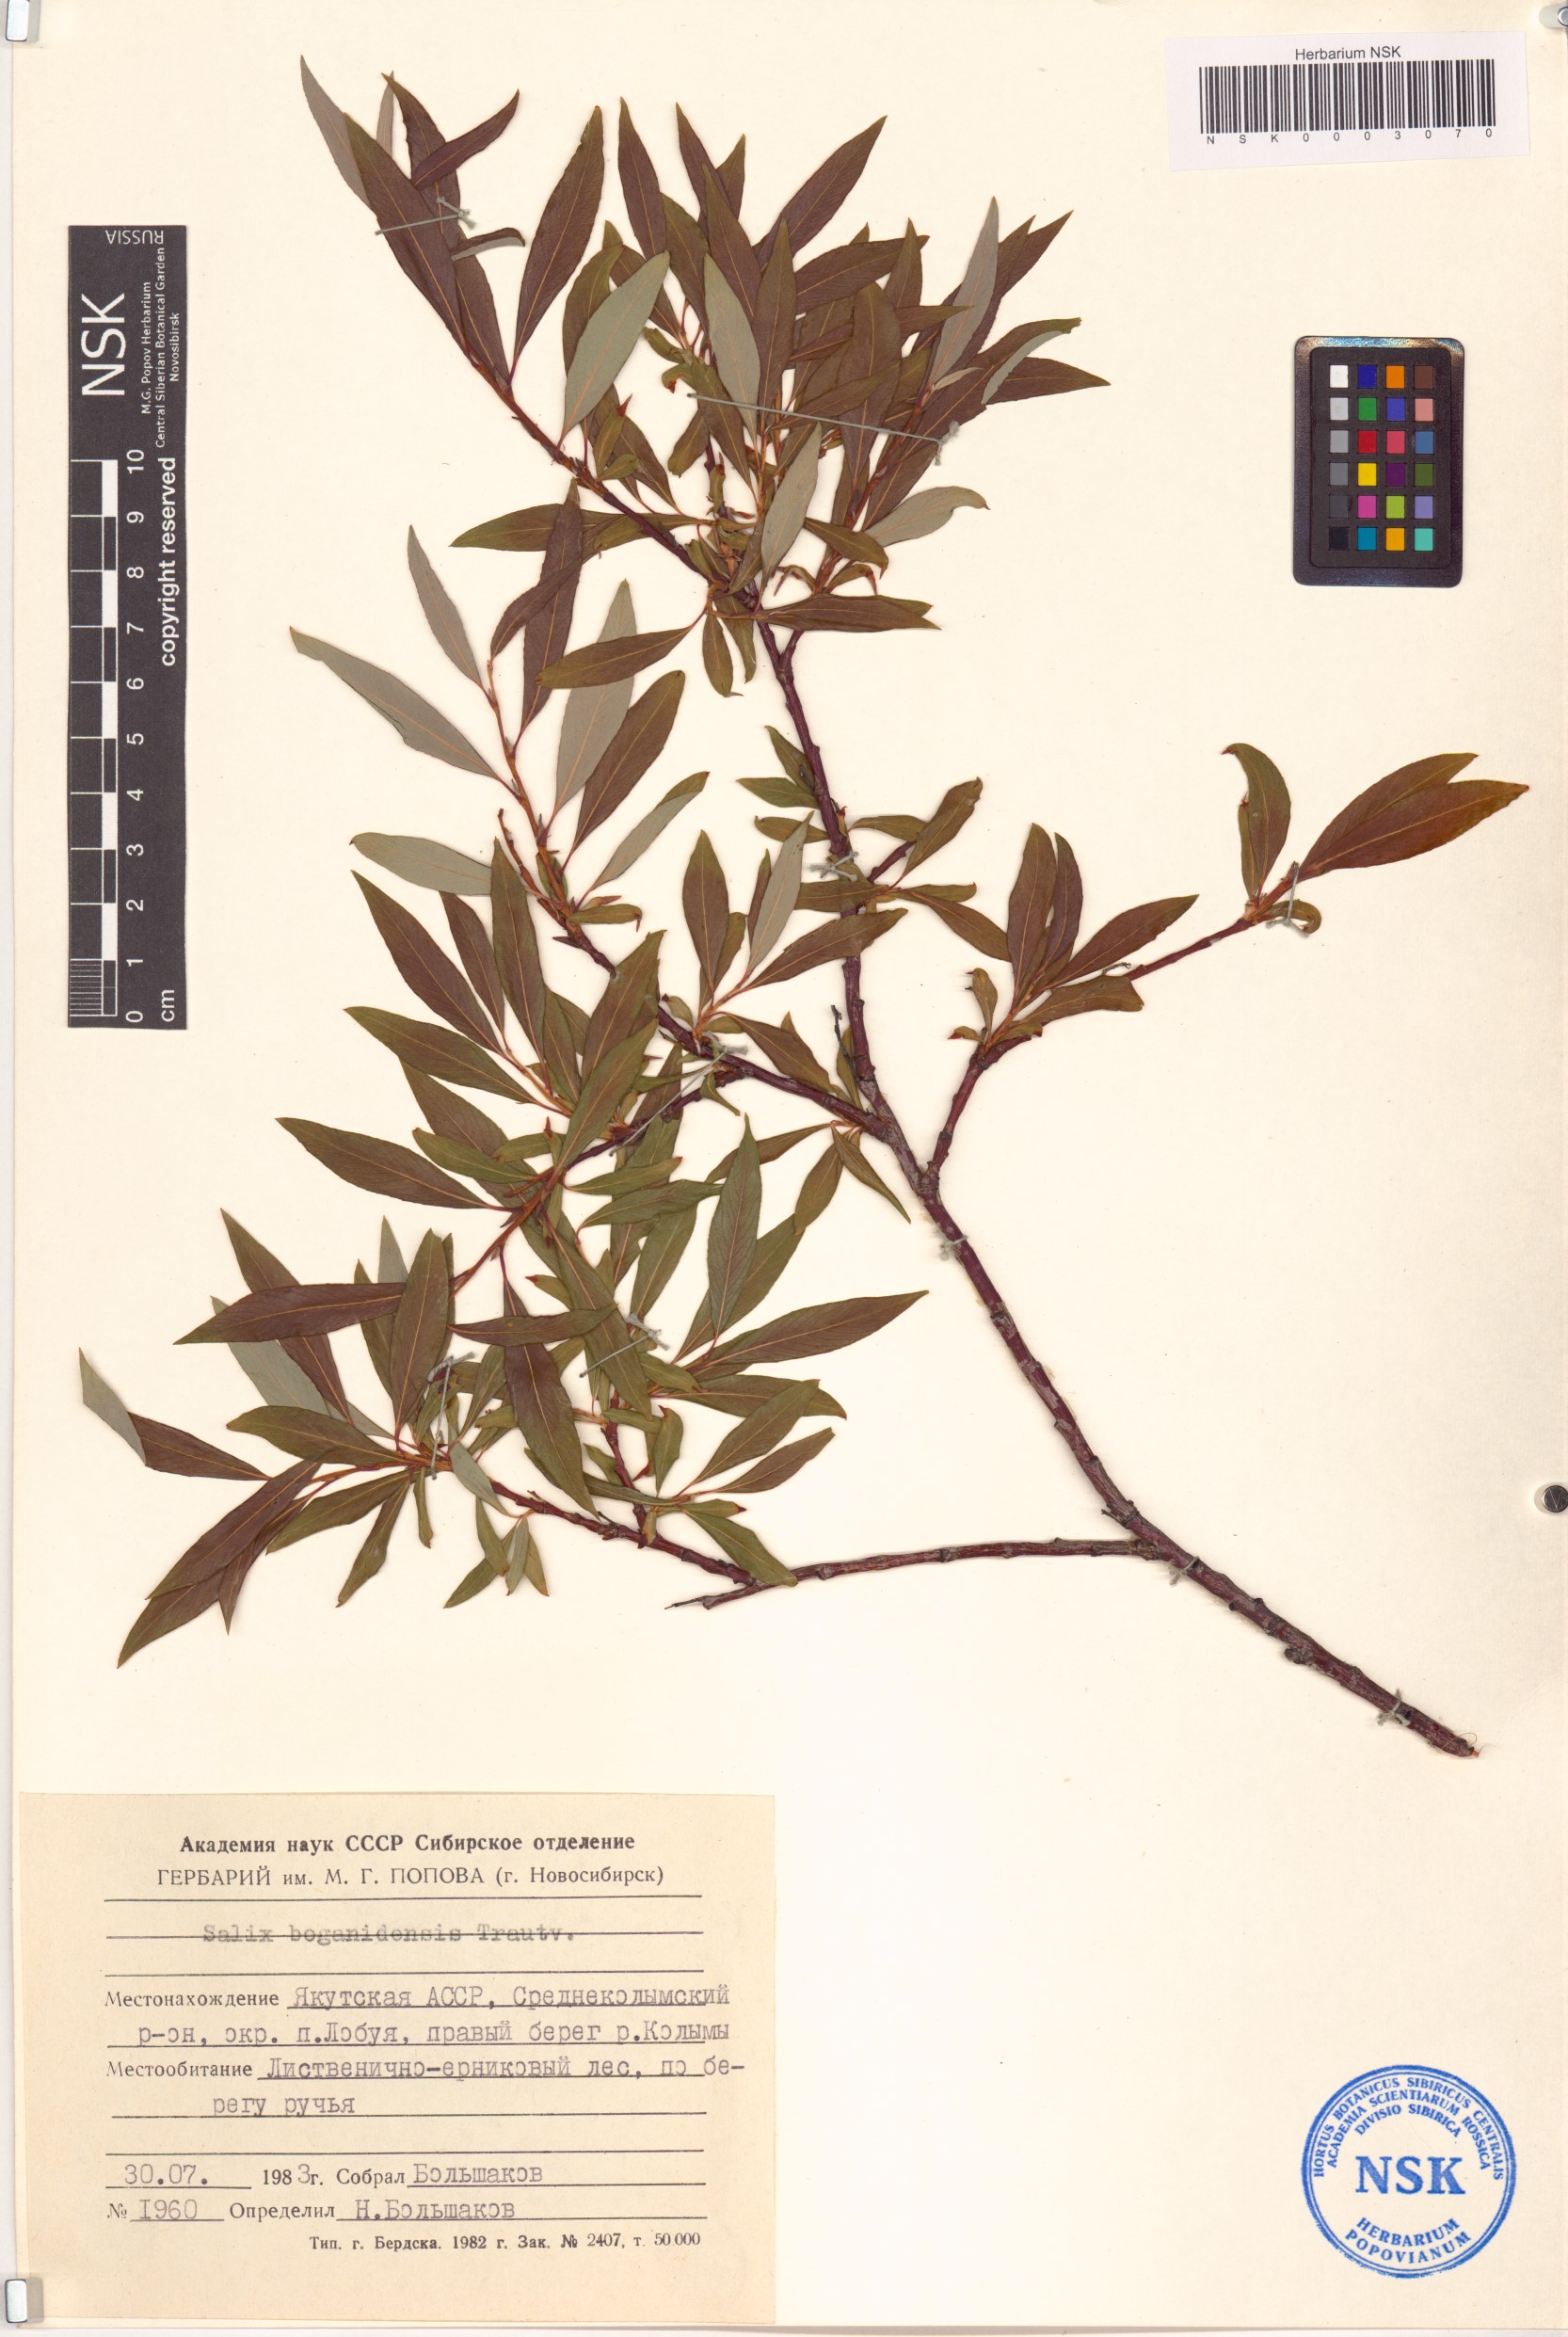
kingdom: Plantae
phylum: Tracheophyta
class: Magnoliopsida
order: Malpighiales
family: Salicaceae
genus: Salix
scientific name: Salix boganidensis
